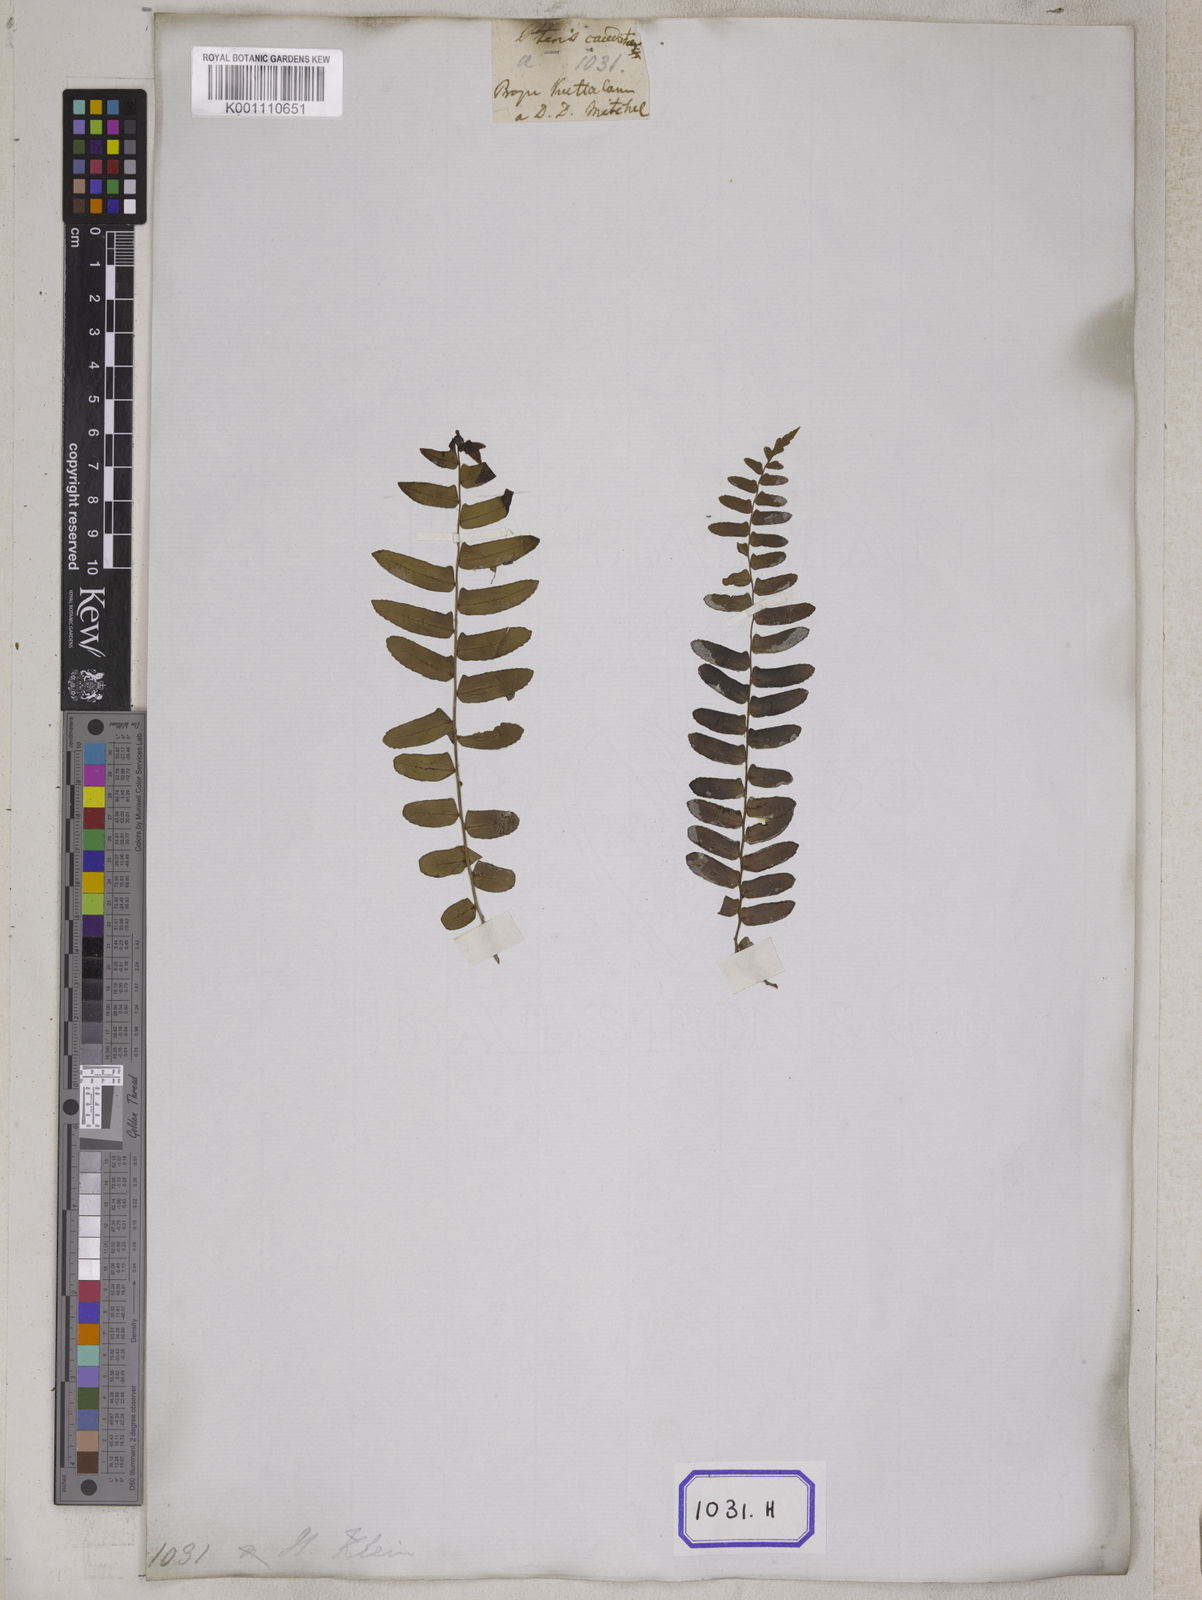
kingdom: Plantae
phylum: Tracheophyta
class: Polypodiopsida
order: Polypodiales
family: Nephrolepidaceae
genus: Nephrolepis
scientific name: Nephrolepis exaltata
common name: Sword fern
